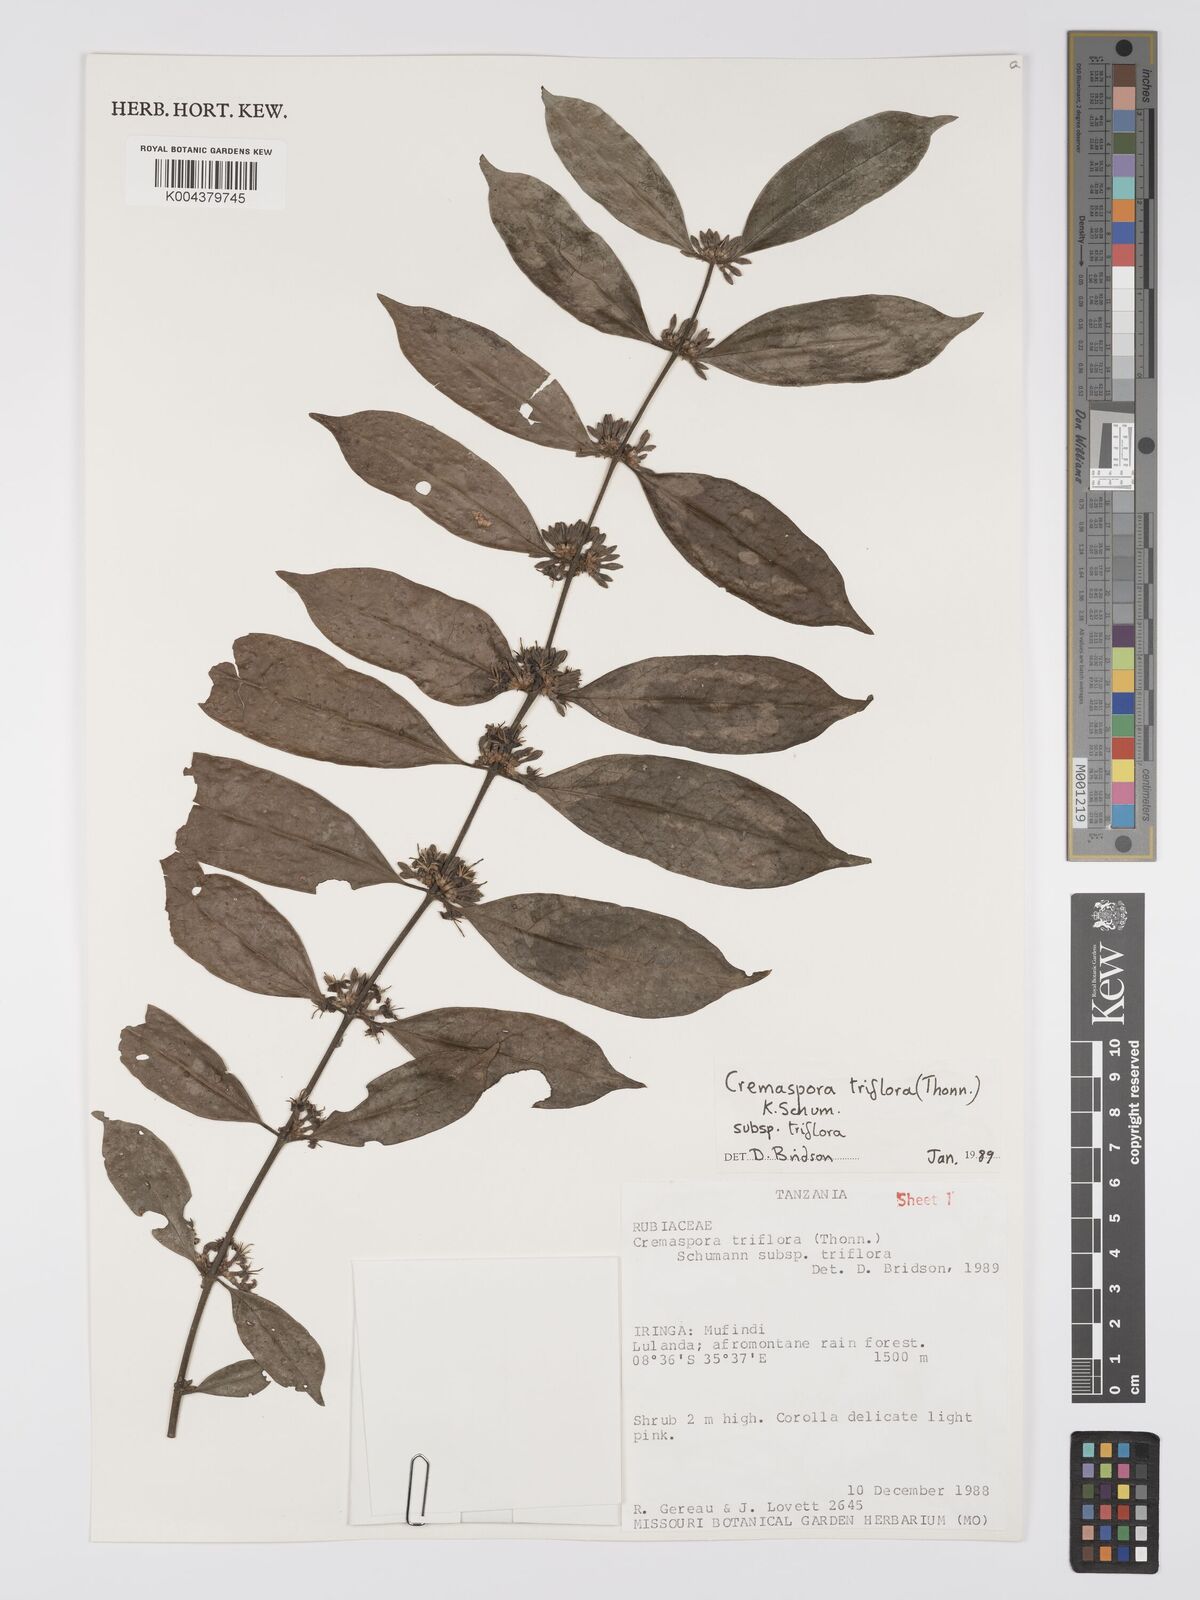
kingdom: Plantae
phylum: Tracheophyta
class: Magnoliopsida
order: Gentianales
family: Rubiaceae
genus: Cremaspora
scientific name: Cremaspora triflora
